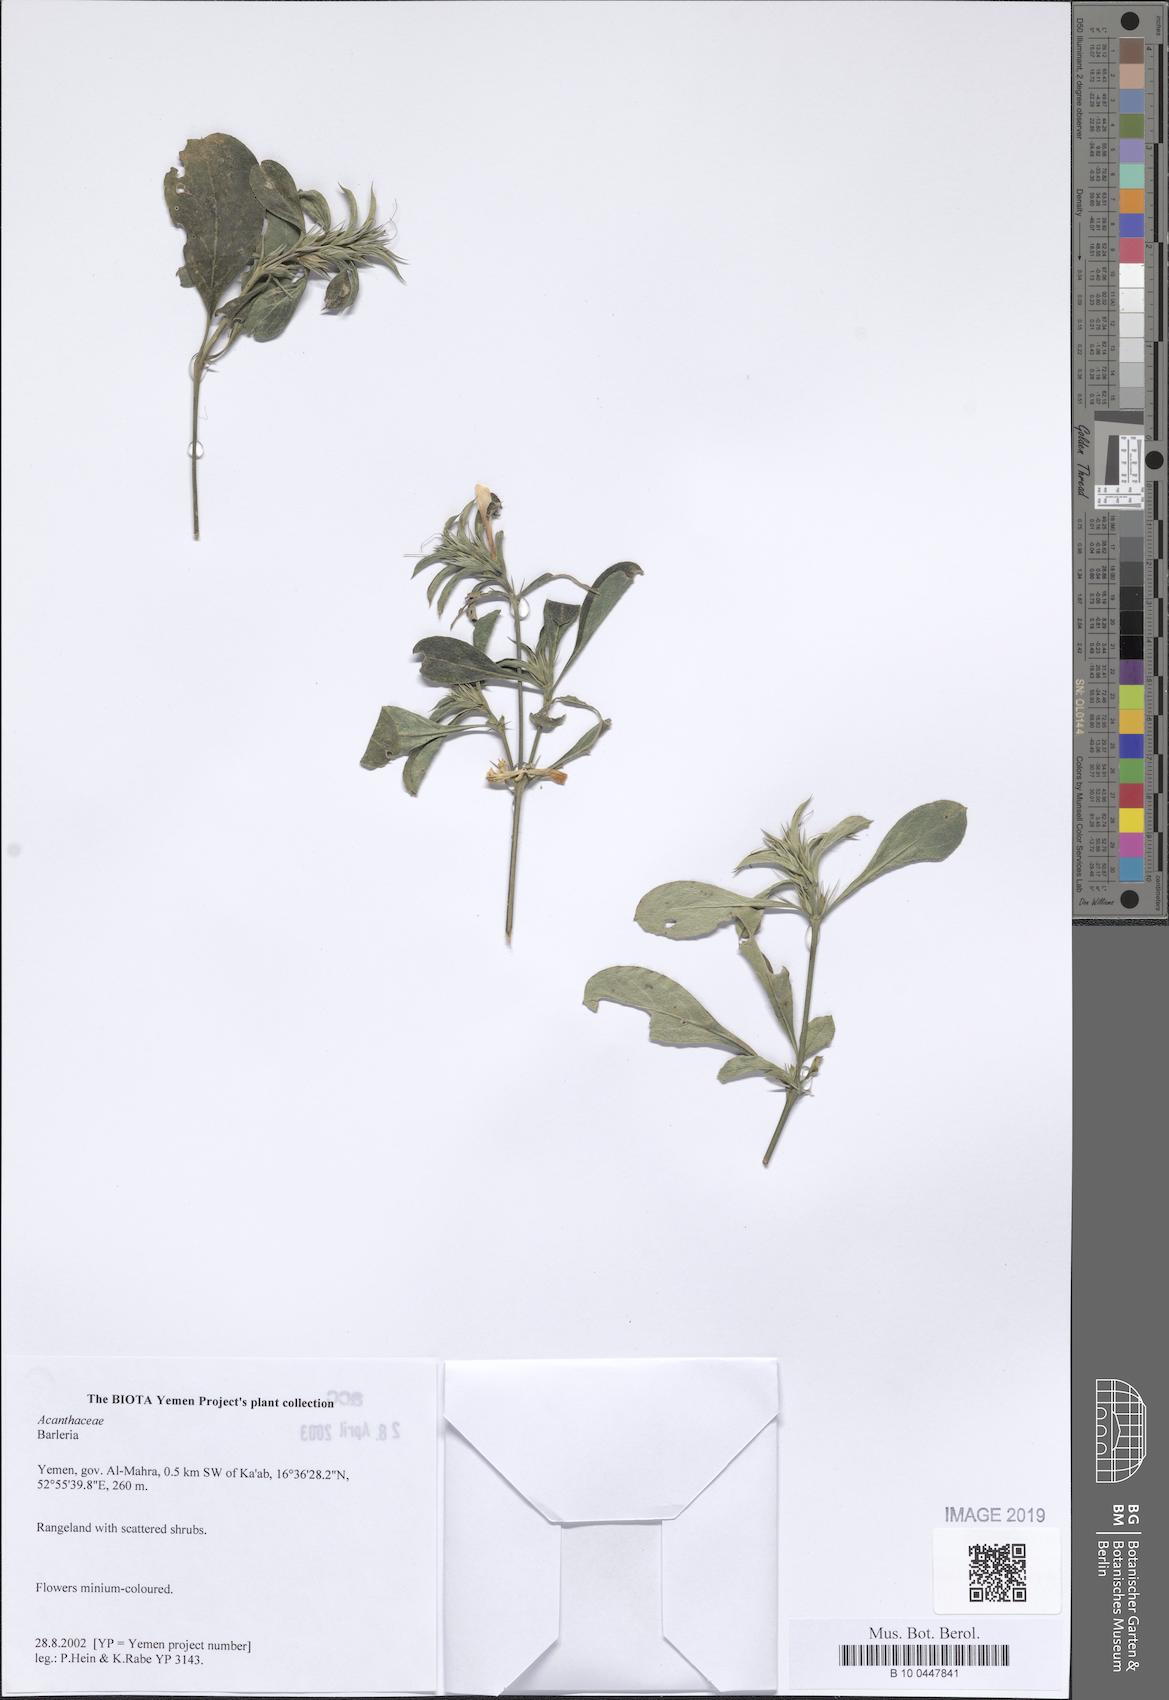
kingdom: Plantae
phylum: Tracheophyta
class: Magnoliopsida
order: Lamiales
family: Acanthaceae
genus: Barleria
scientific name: Barleria
